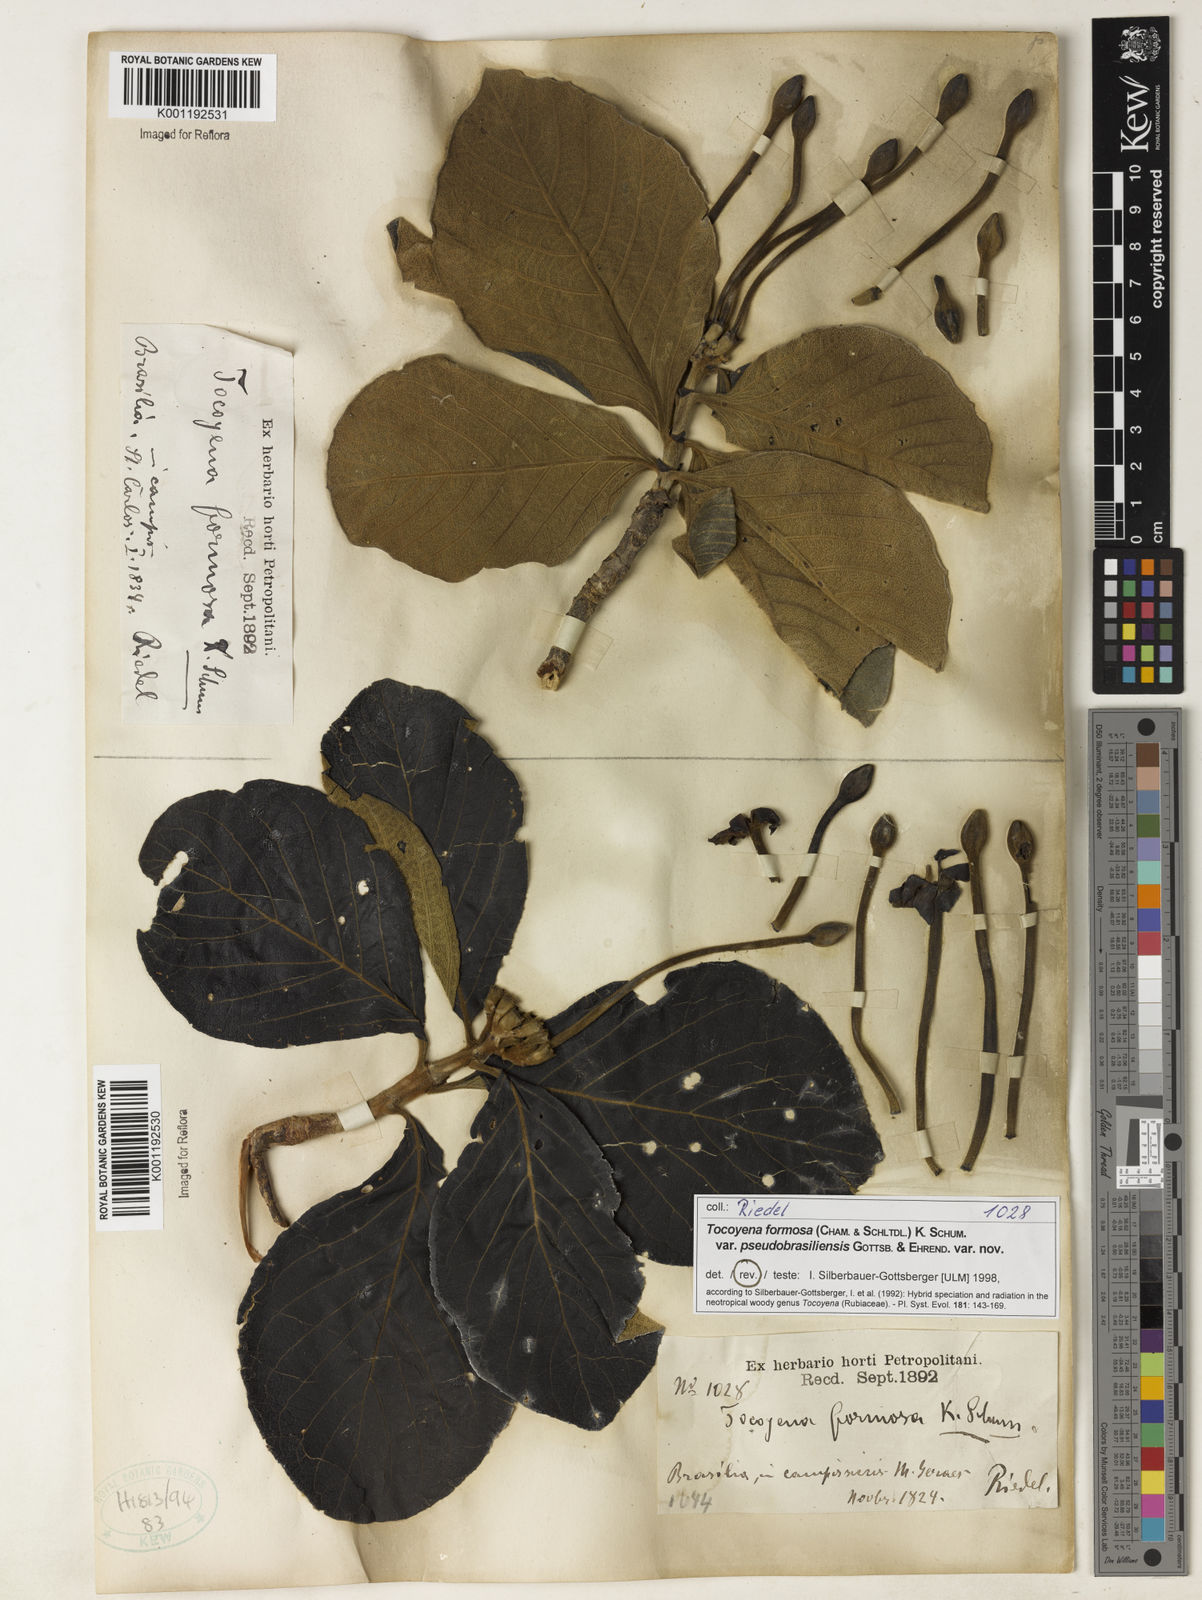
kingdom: Plantae
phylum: Tracheophyta
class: Magnoliopsida
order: Gentianales
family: Rubiaceae
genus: Tocoyena
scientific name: Tocoyena formosa
